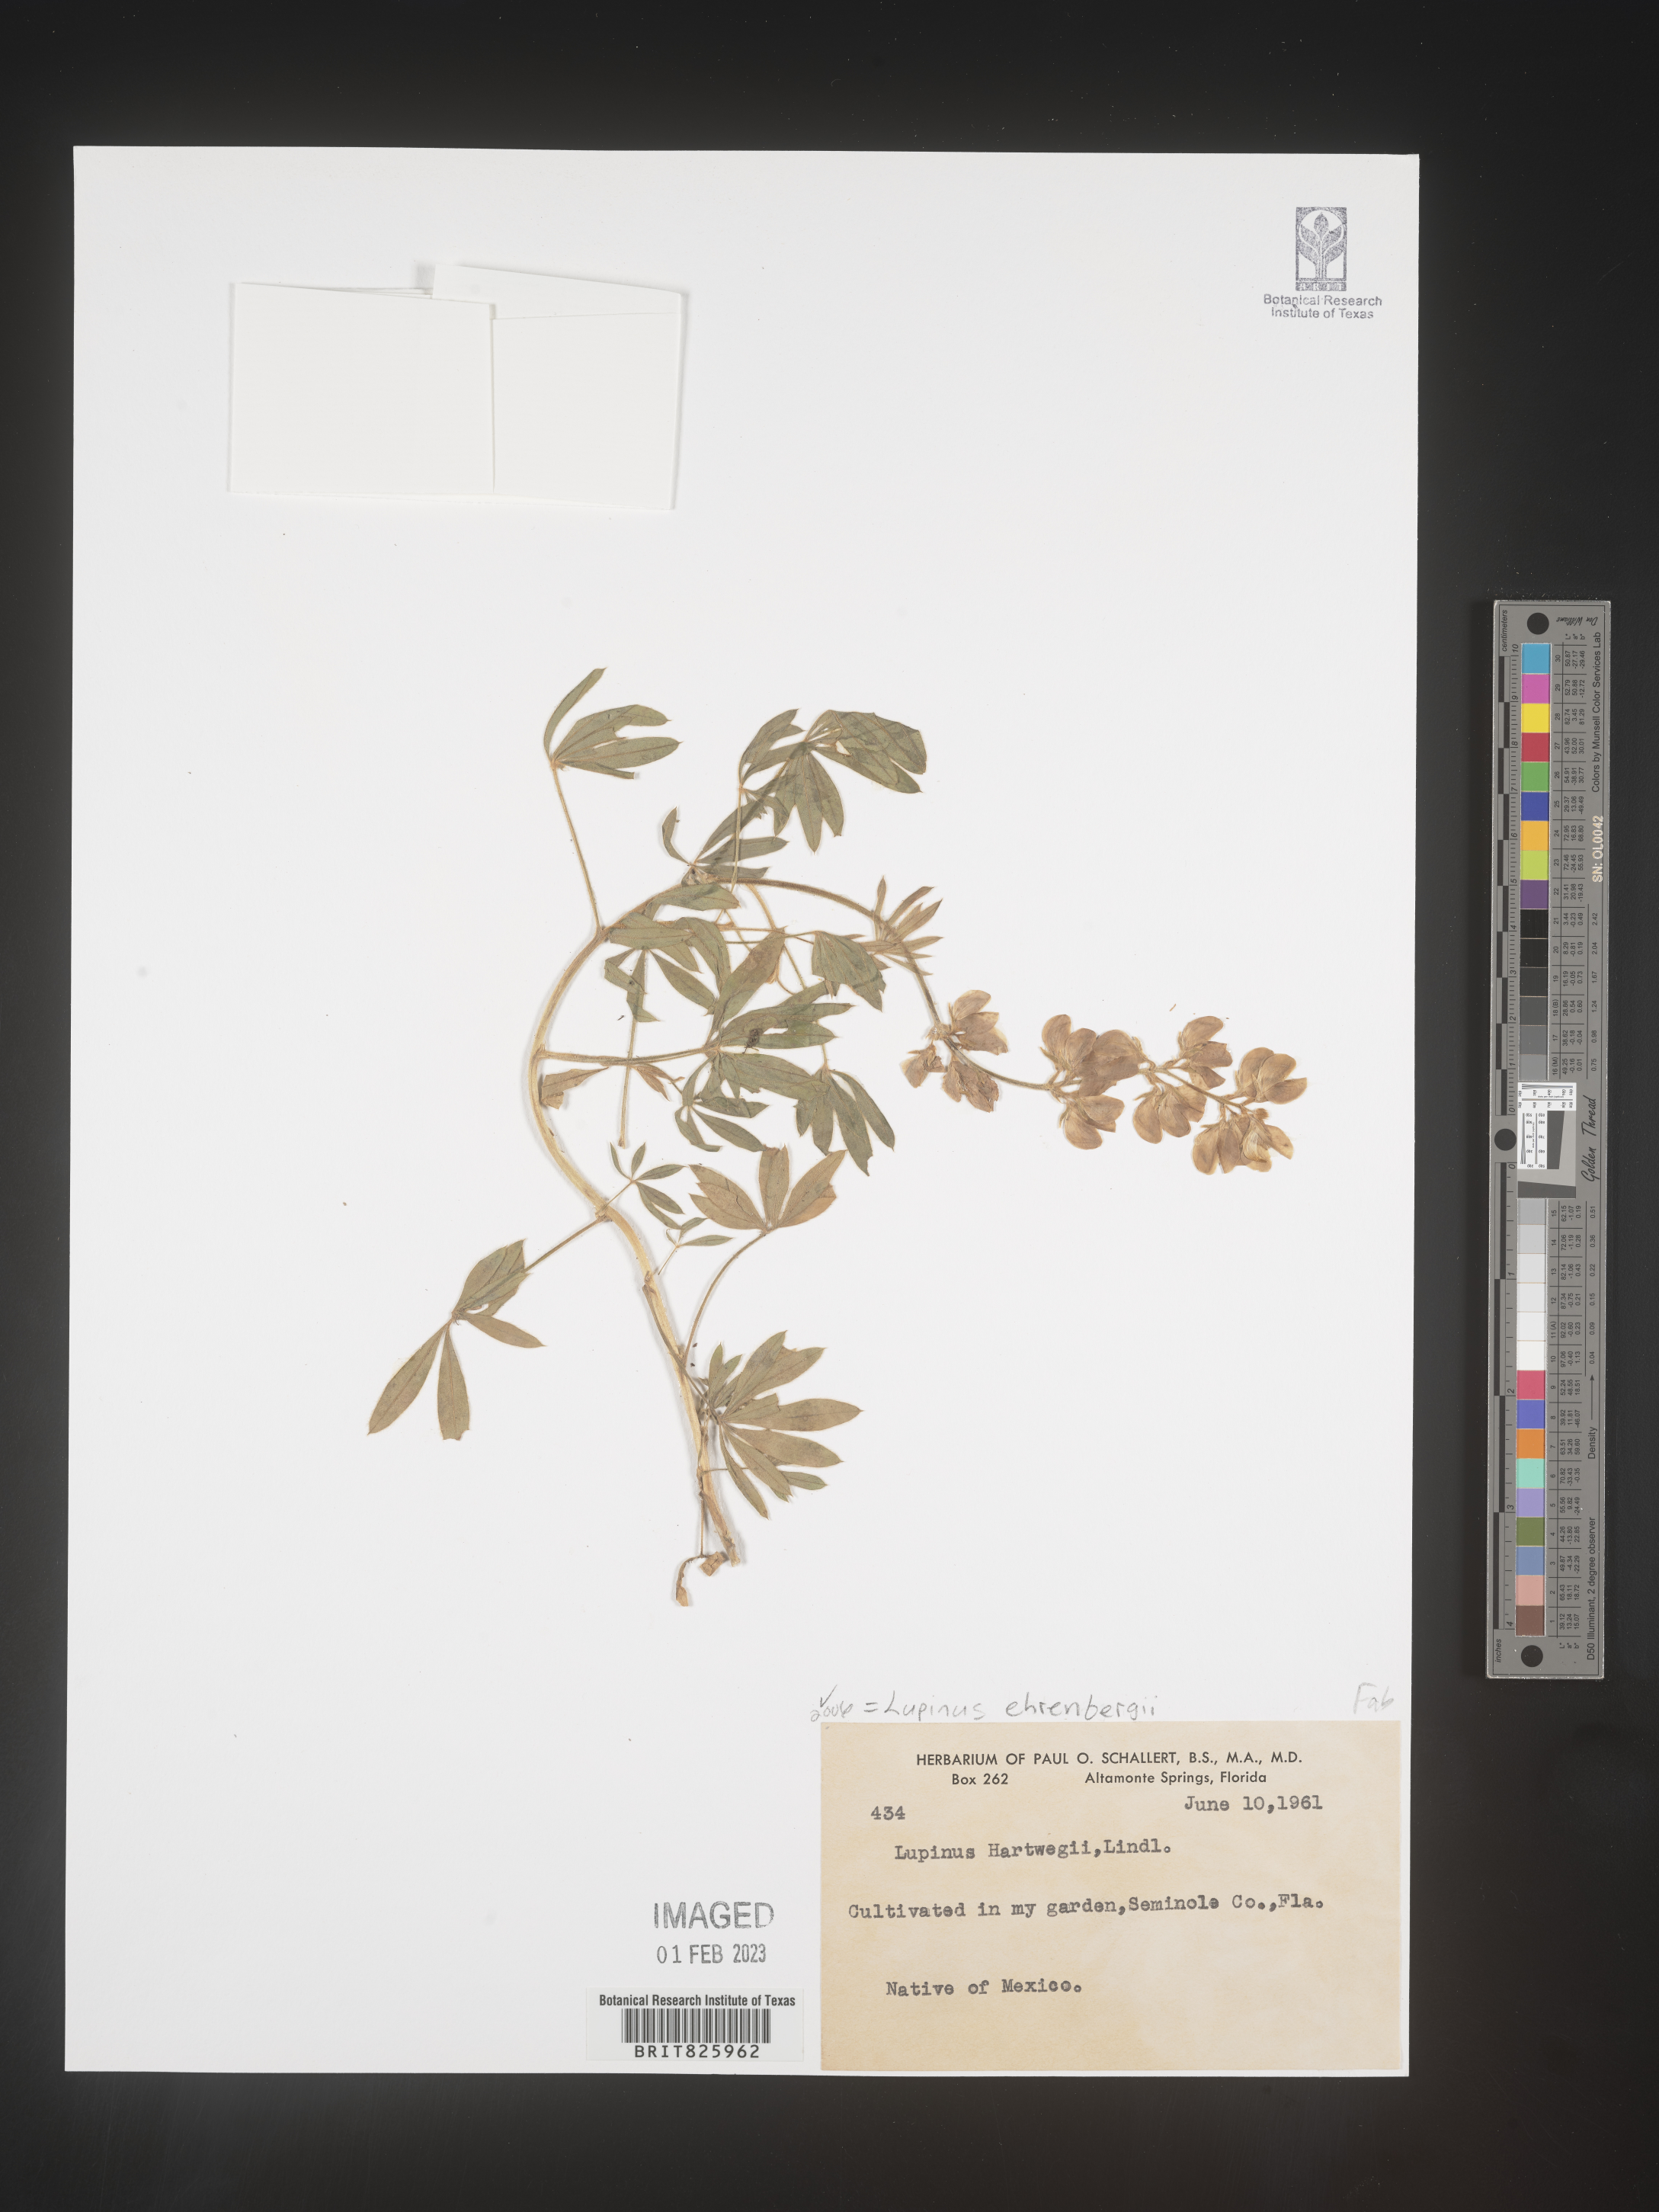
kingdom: Plantae
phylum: Tracheophyta
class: Magnoliopsida
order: Fabales
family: Fabaceae
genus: Lupinus
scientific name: Lupinus
